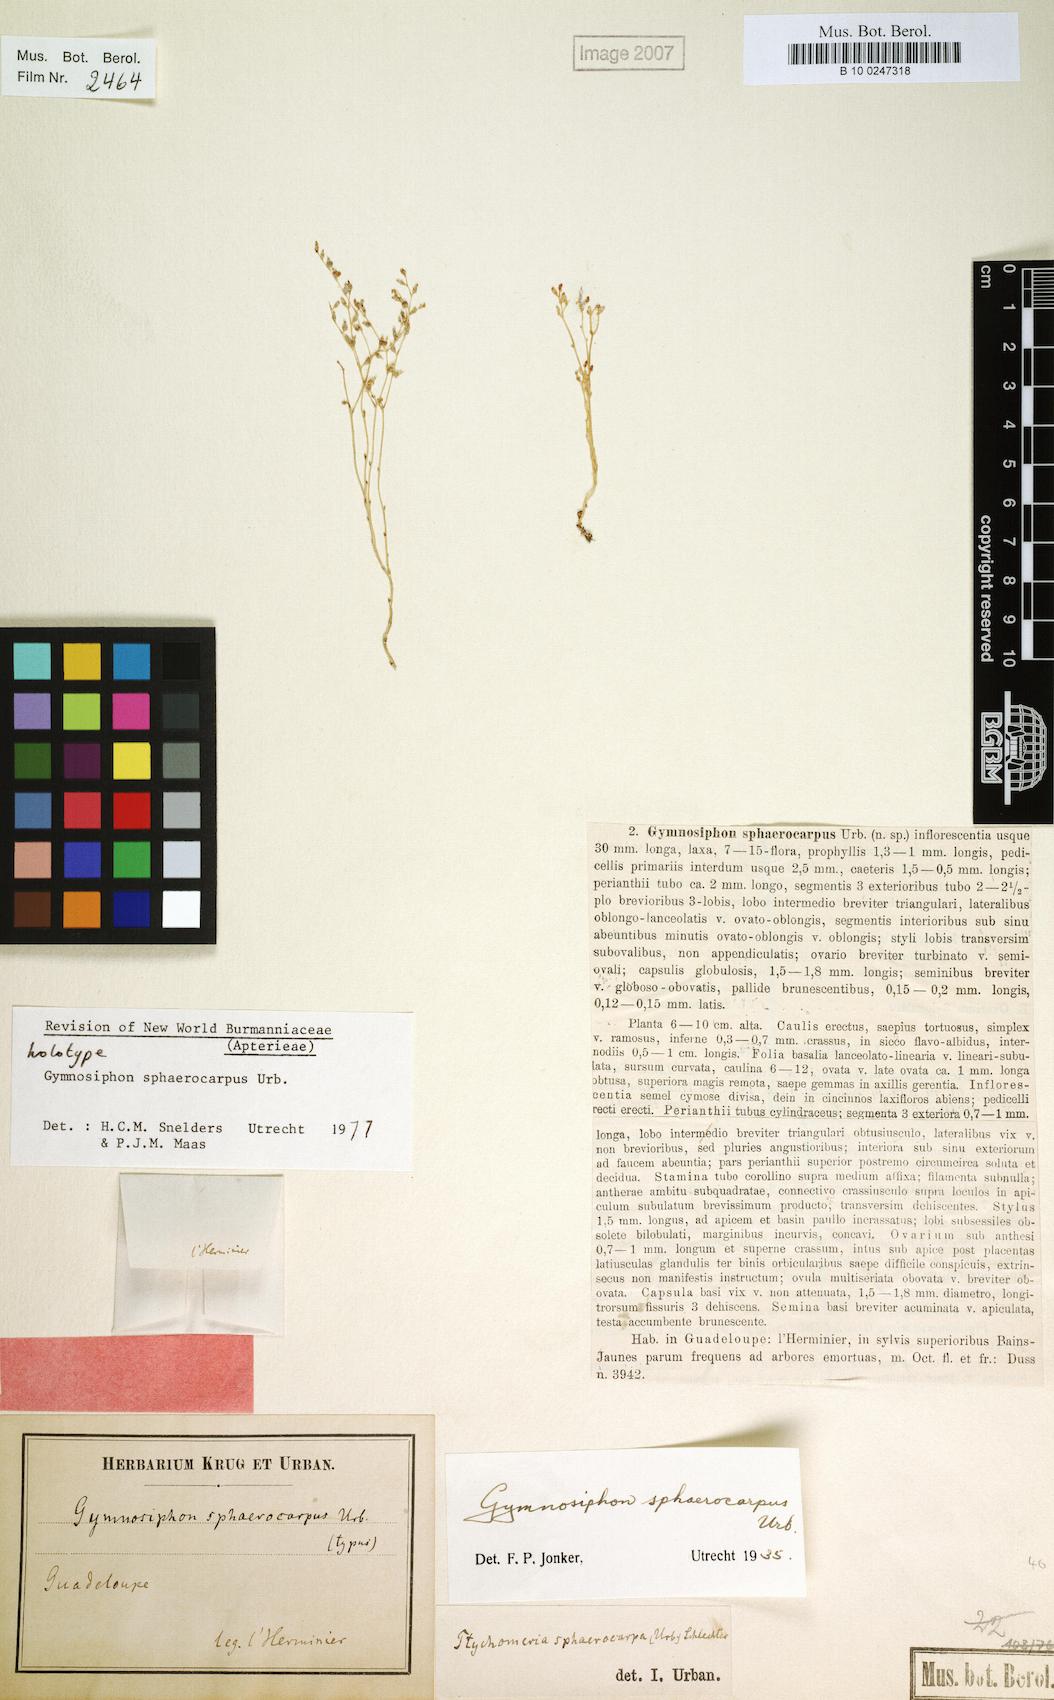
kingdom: Plantae
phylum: Tracheophyta
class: Liliopsida
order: Dioscoreales
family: Burmanniaceae
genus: Gymnosiphon
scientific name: Gymnosiphon sphaerocarpus
